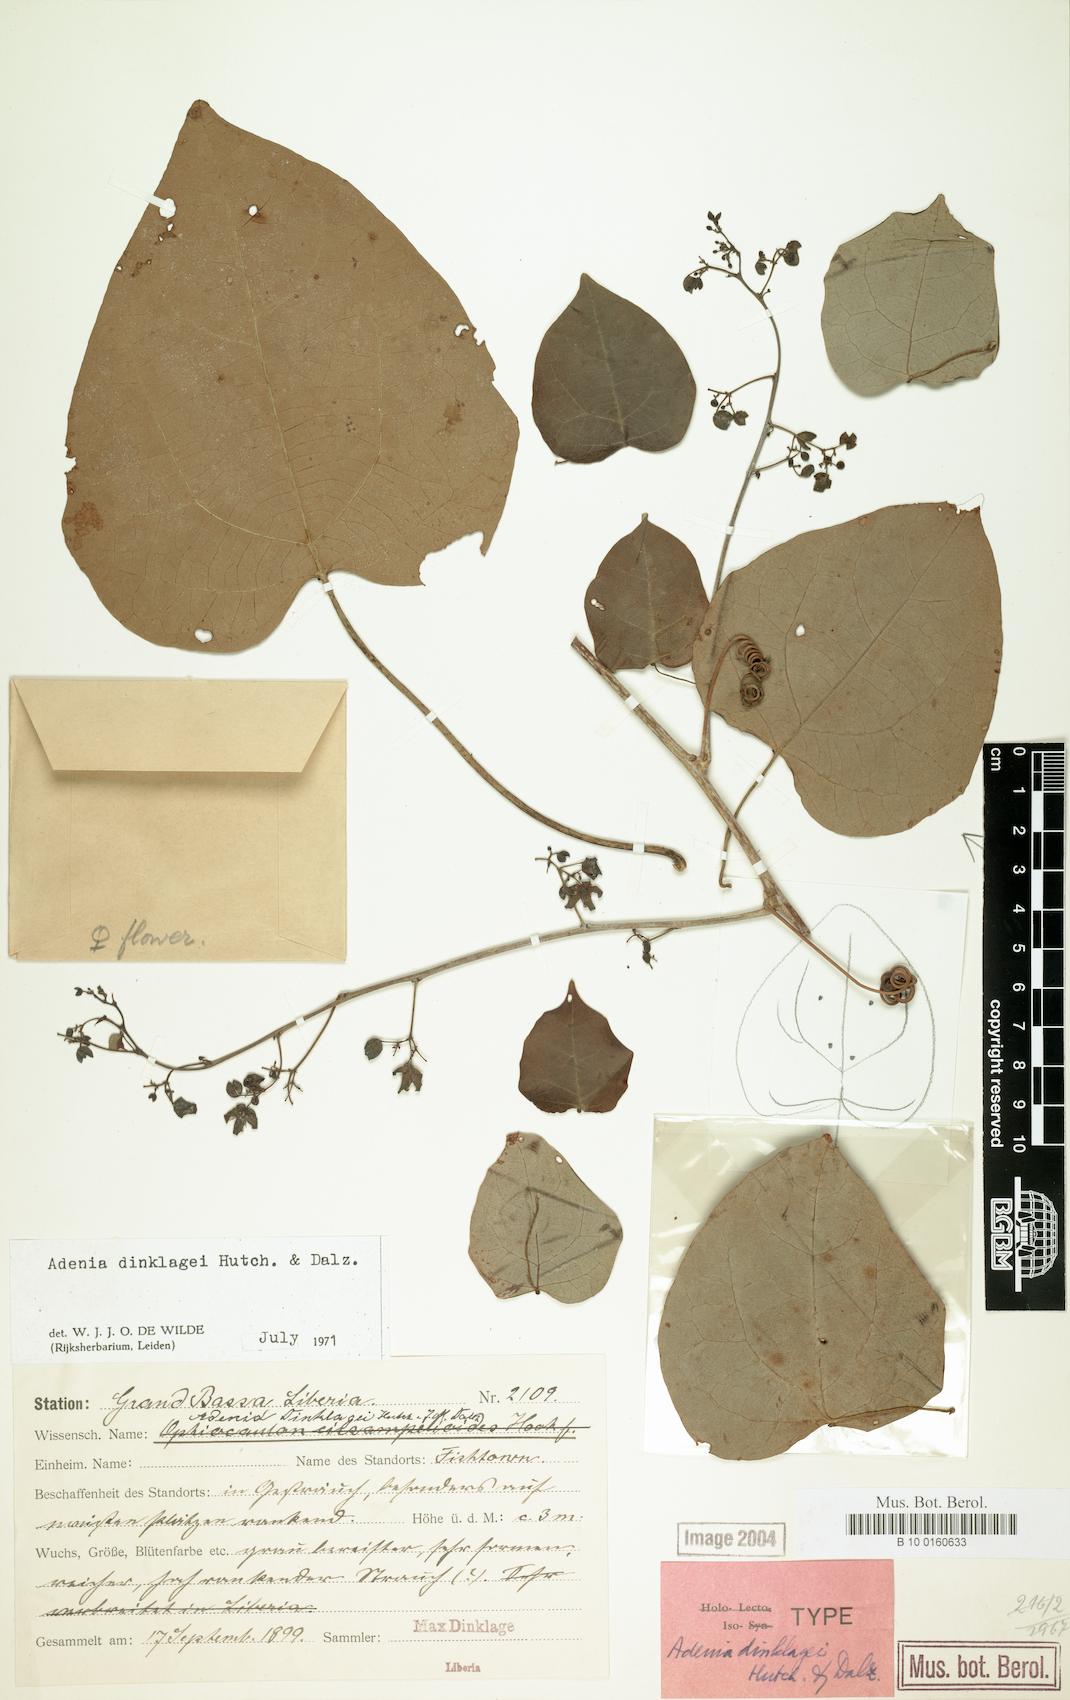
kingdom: Plantae
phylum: Tracheophyta
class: Magnoliopsida
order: Malpighiales
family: Passifloraceae
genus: Adenia
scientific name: Adenia dinklagei
